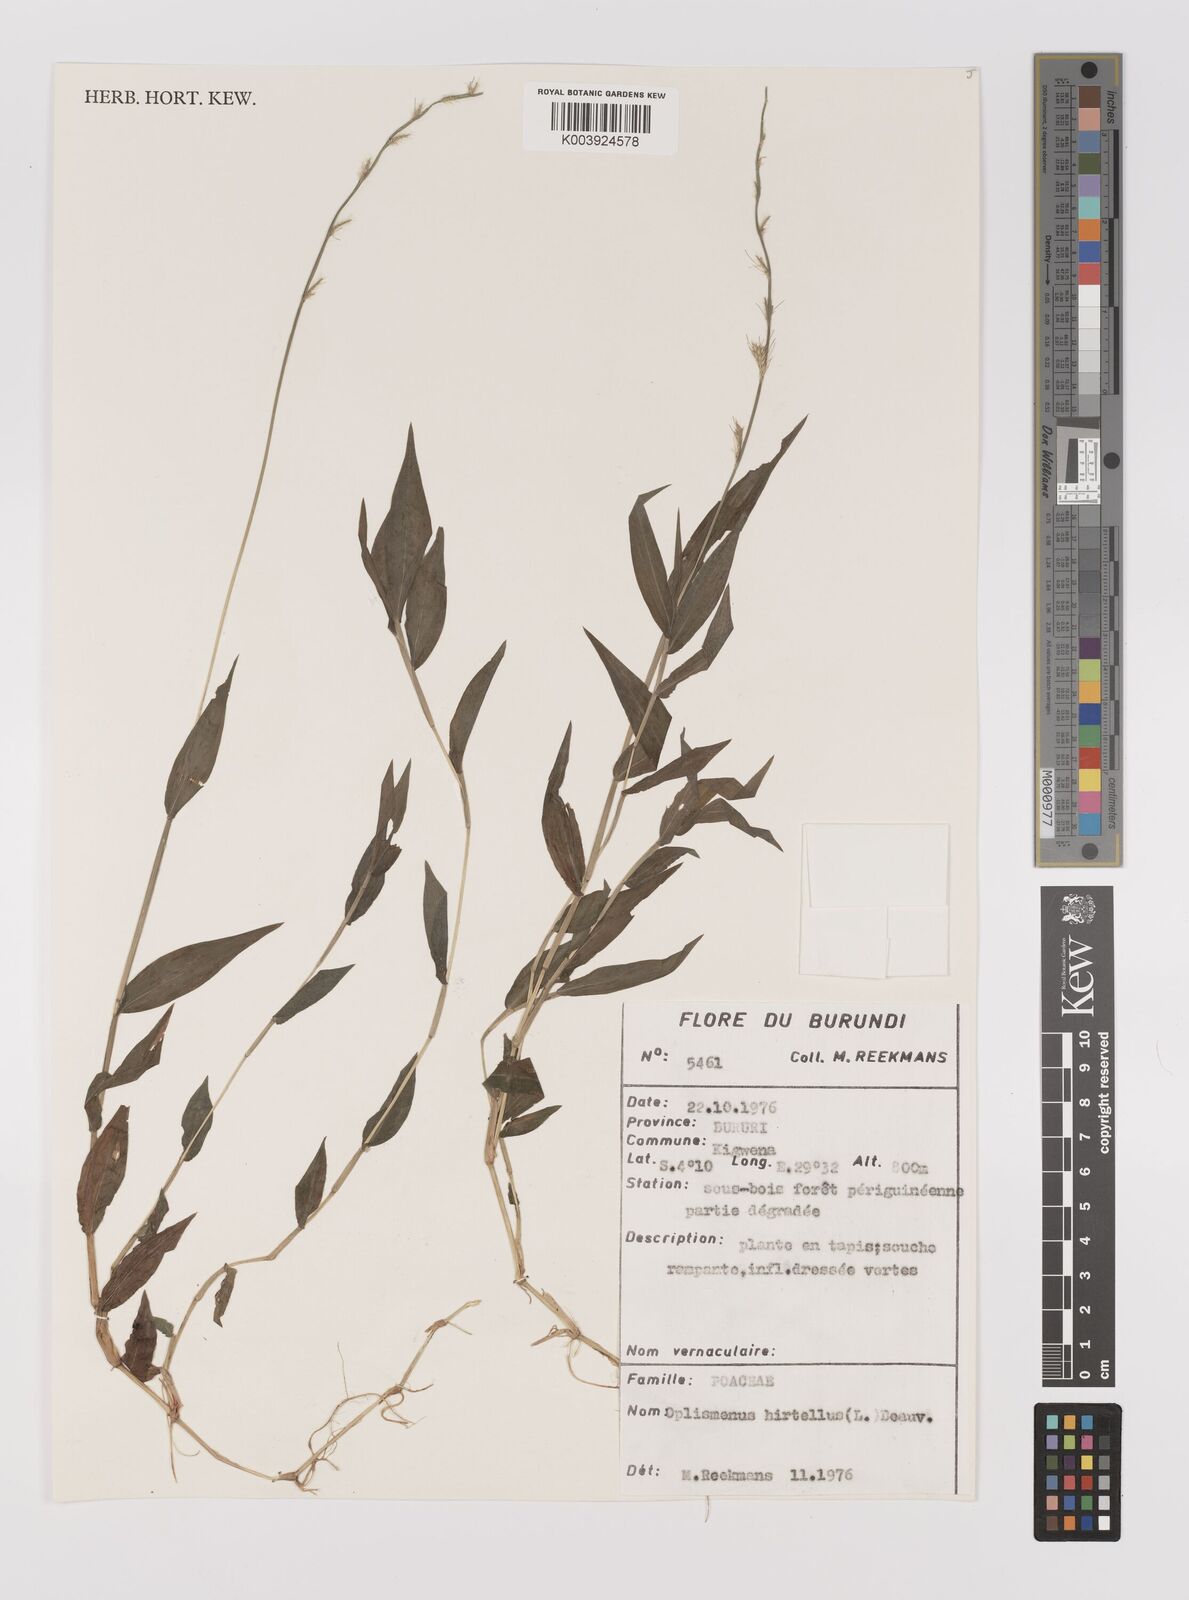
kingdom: Plantae
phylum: Tracheophyta
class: Liliopsida
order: Poales
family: Poaceae
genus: Oplismenus
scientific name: Oplismenus hirtellus
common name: Basketgrass
